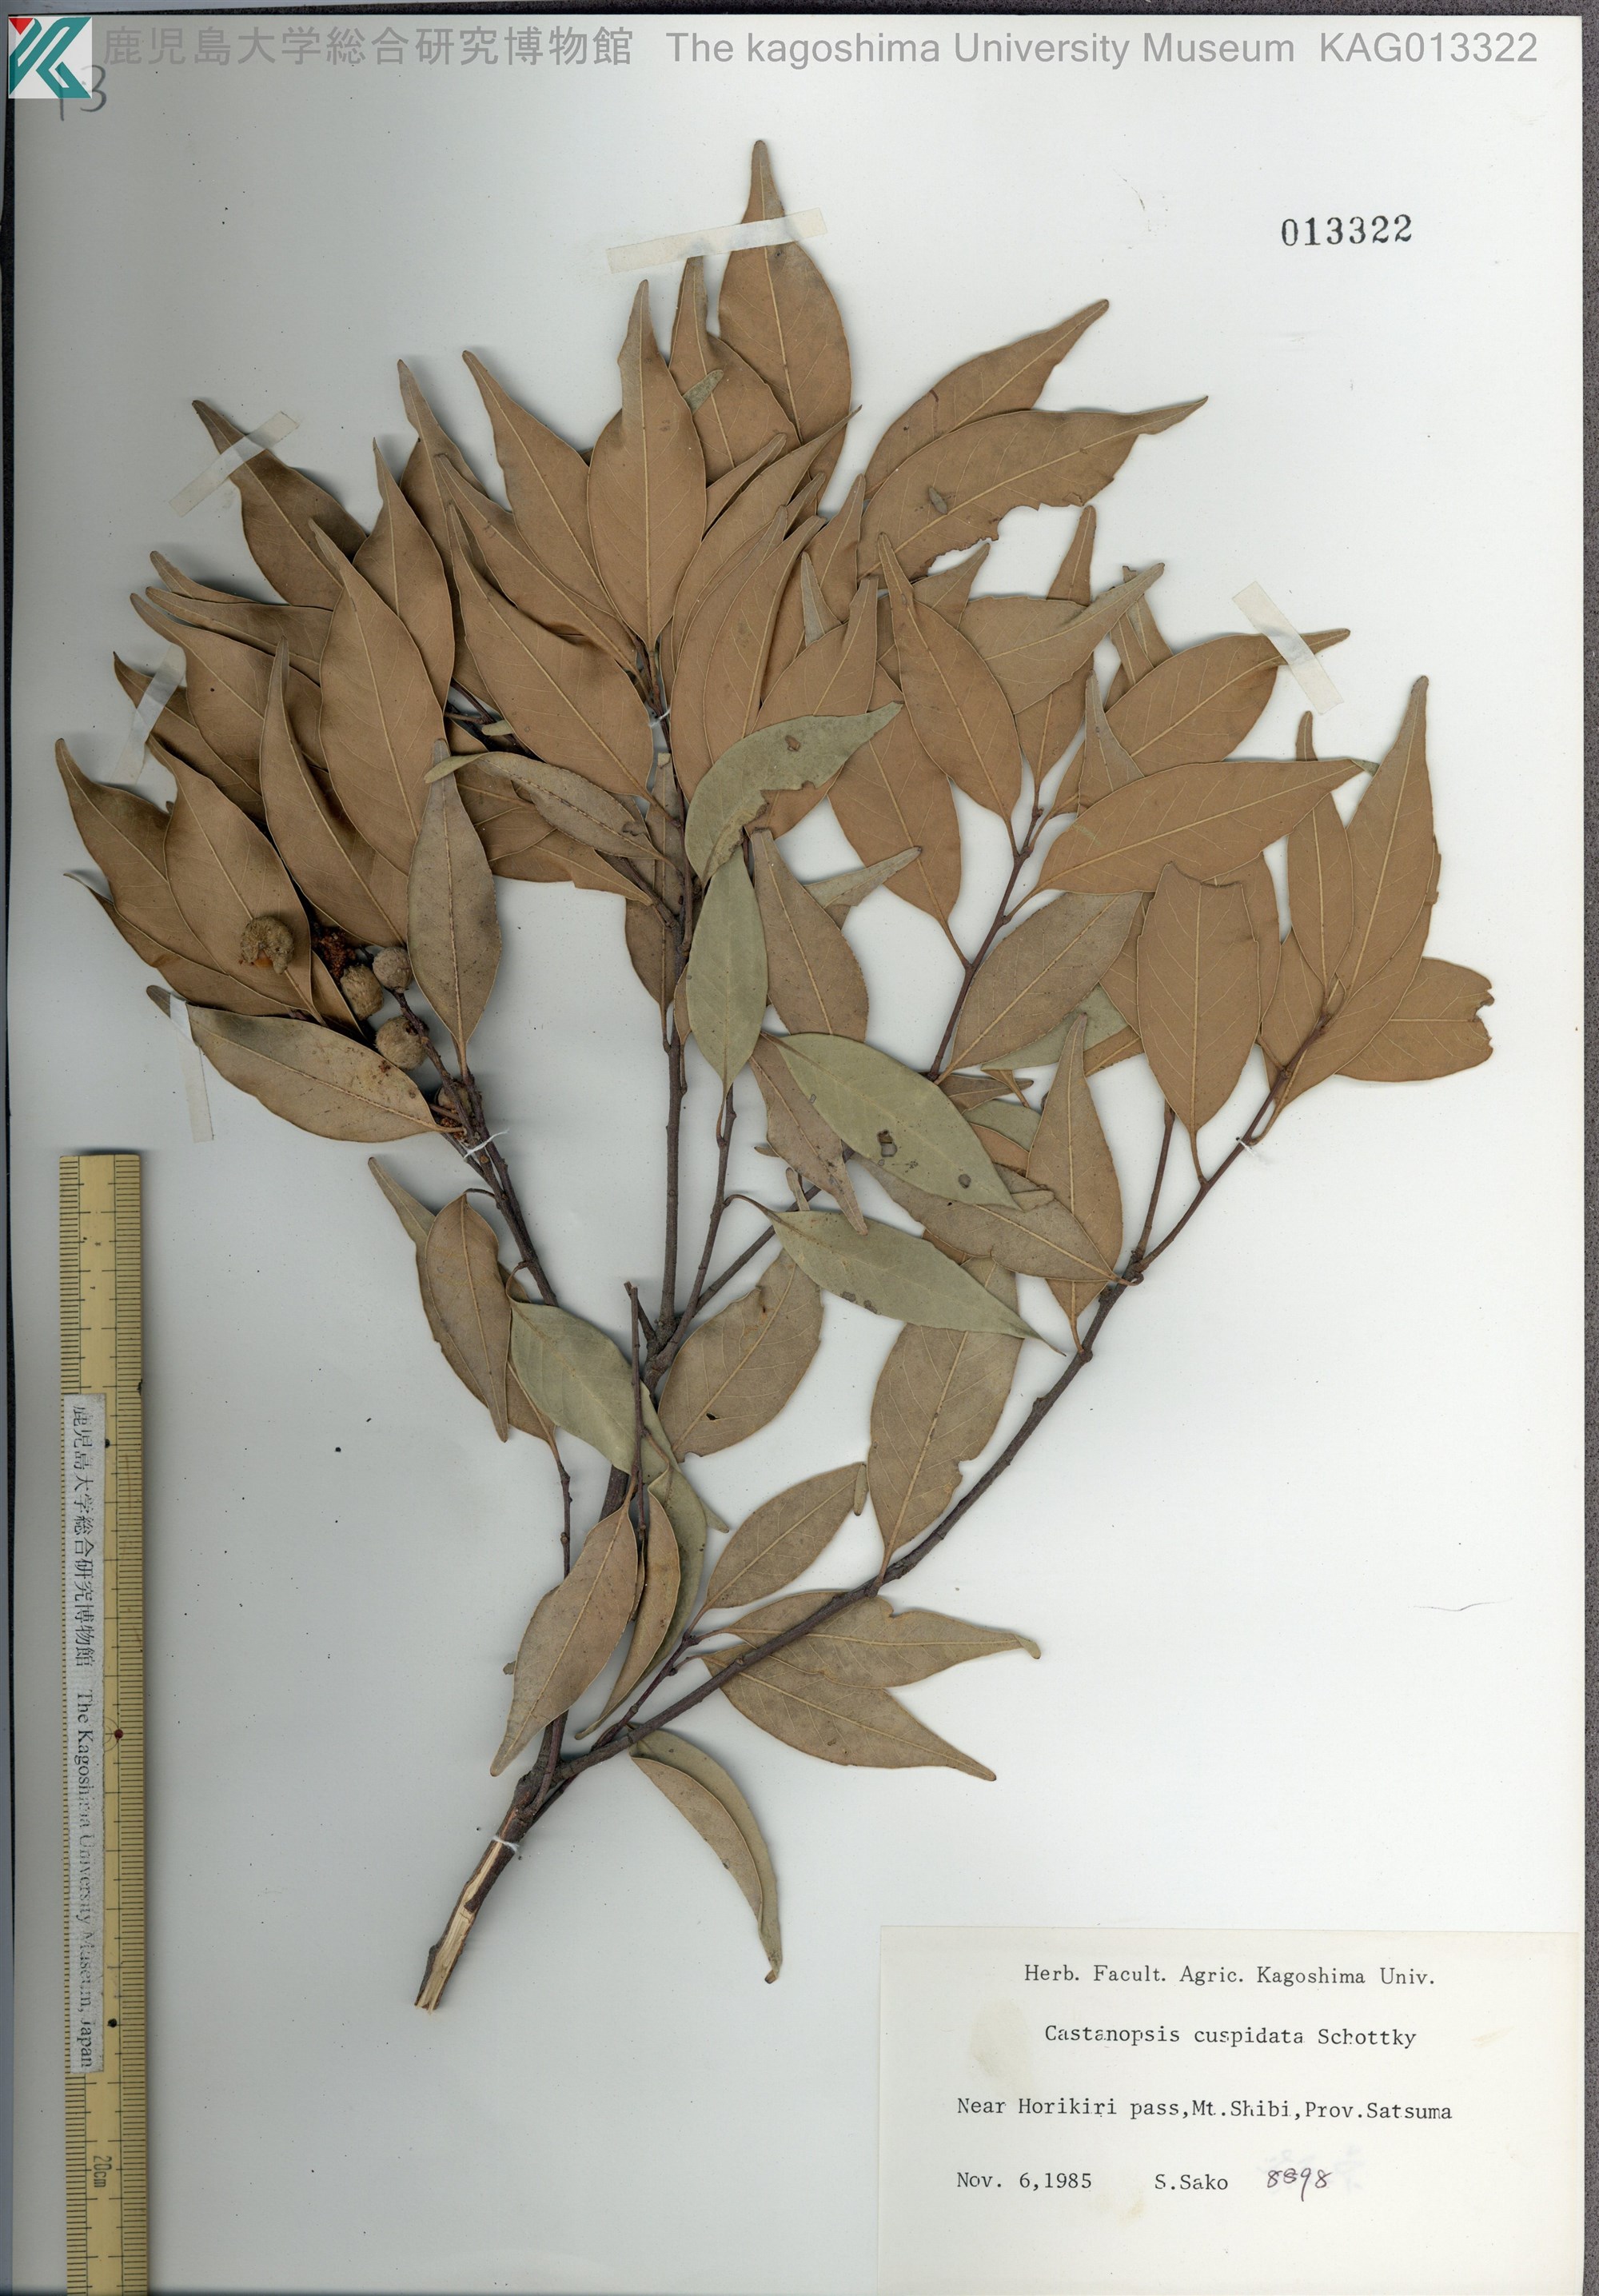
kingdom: Plantae
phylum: Tracheophyta
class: Magnoliopsida
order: Fagales
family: Fagaceae
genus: Castanopsis
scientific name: Castanopsis cuspidata
